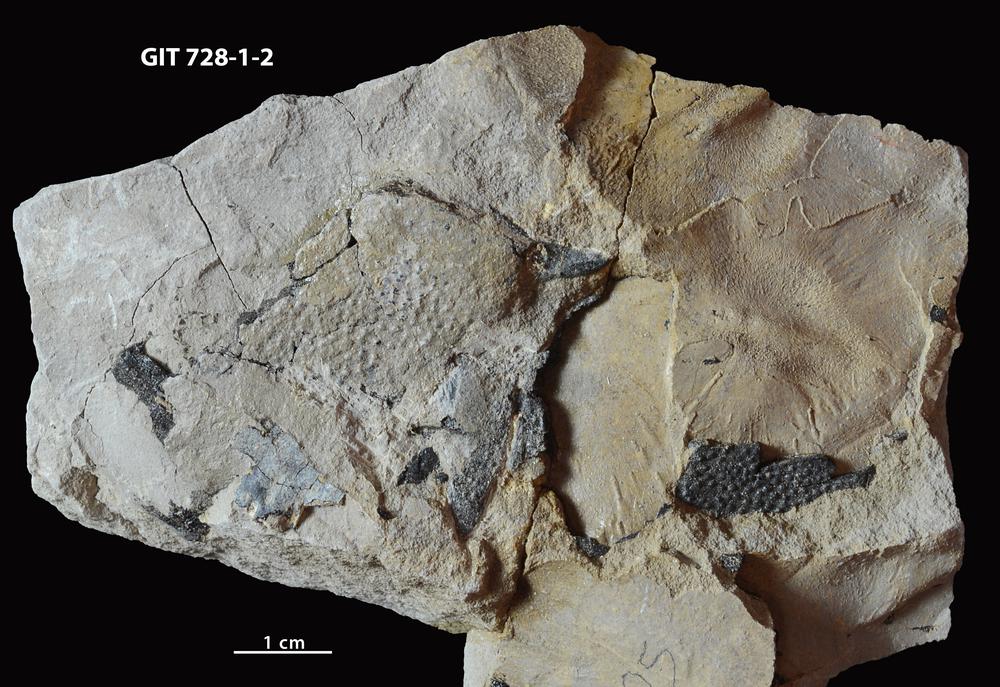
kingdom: Animalia
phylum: Chordata
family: Coccosteidae
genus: Watsonosteus
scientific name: Watsonosteus
